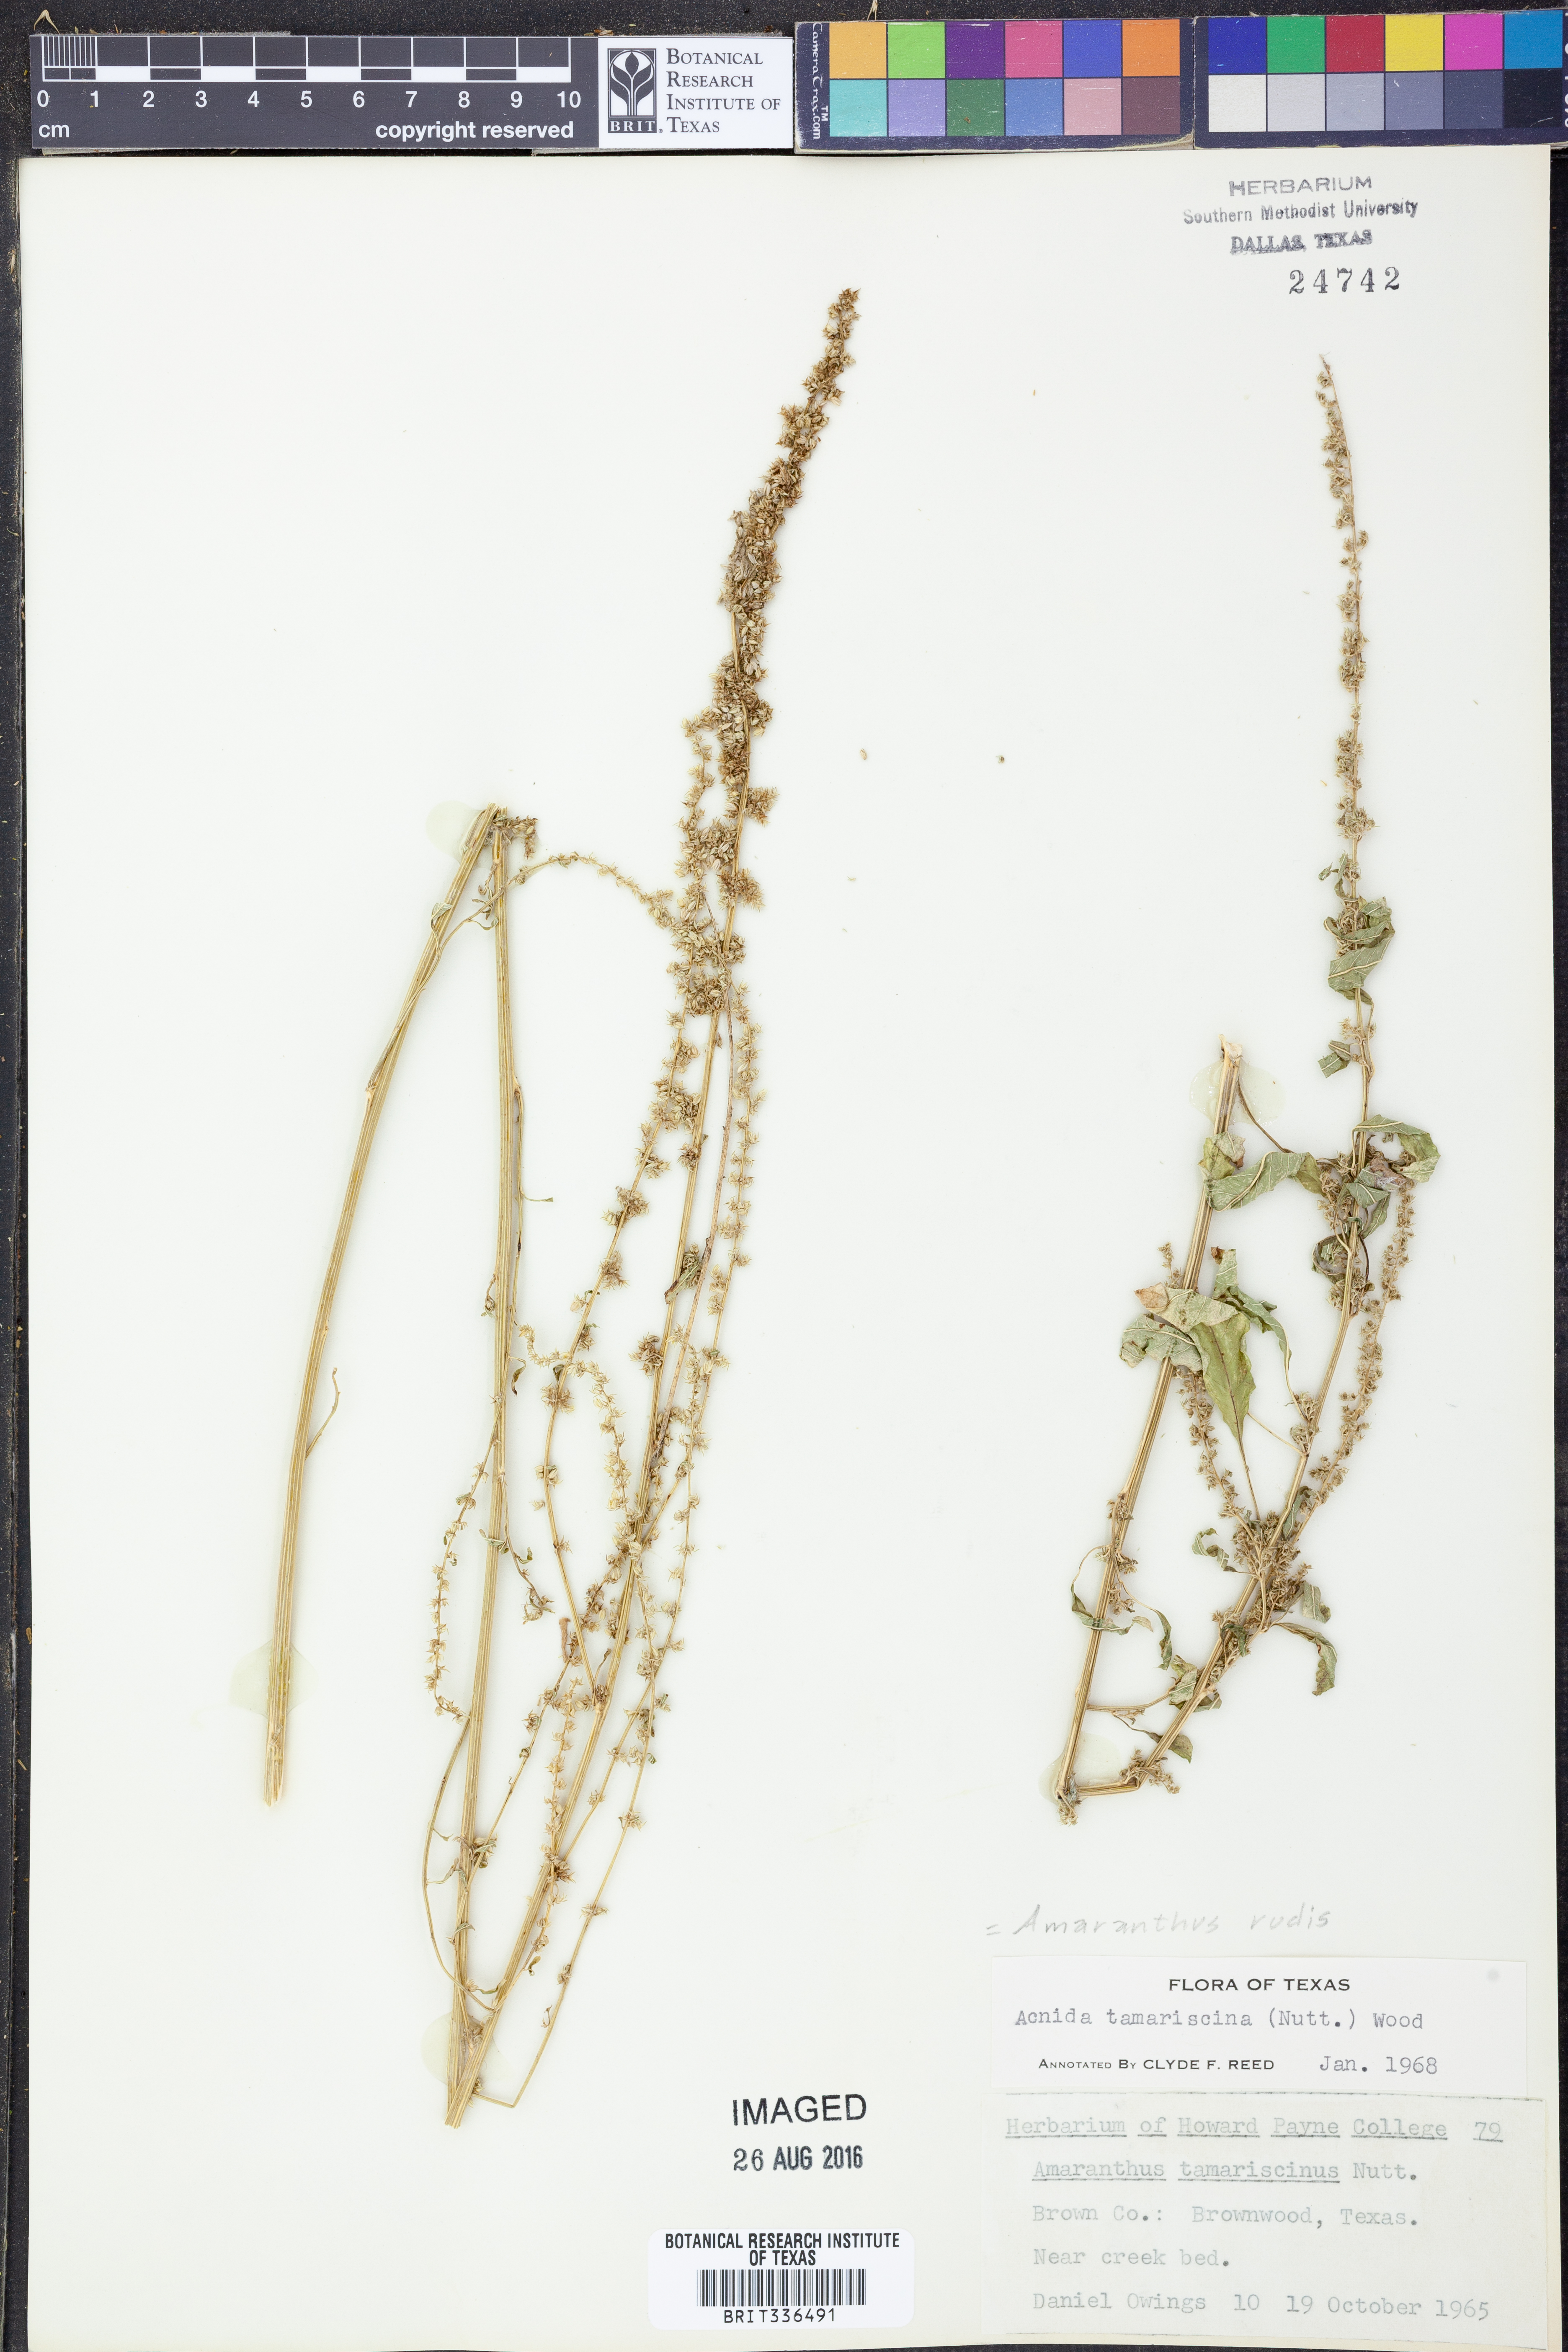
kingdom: Plantae
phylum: Tracheophyta
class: Magnoliopsida
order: Caryophyllales
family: Amaranthaceae
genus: Amaranthus
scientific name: Amaranthus tuberculatus
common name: Rough-fruit amaranth
